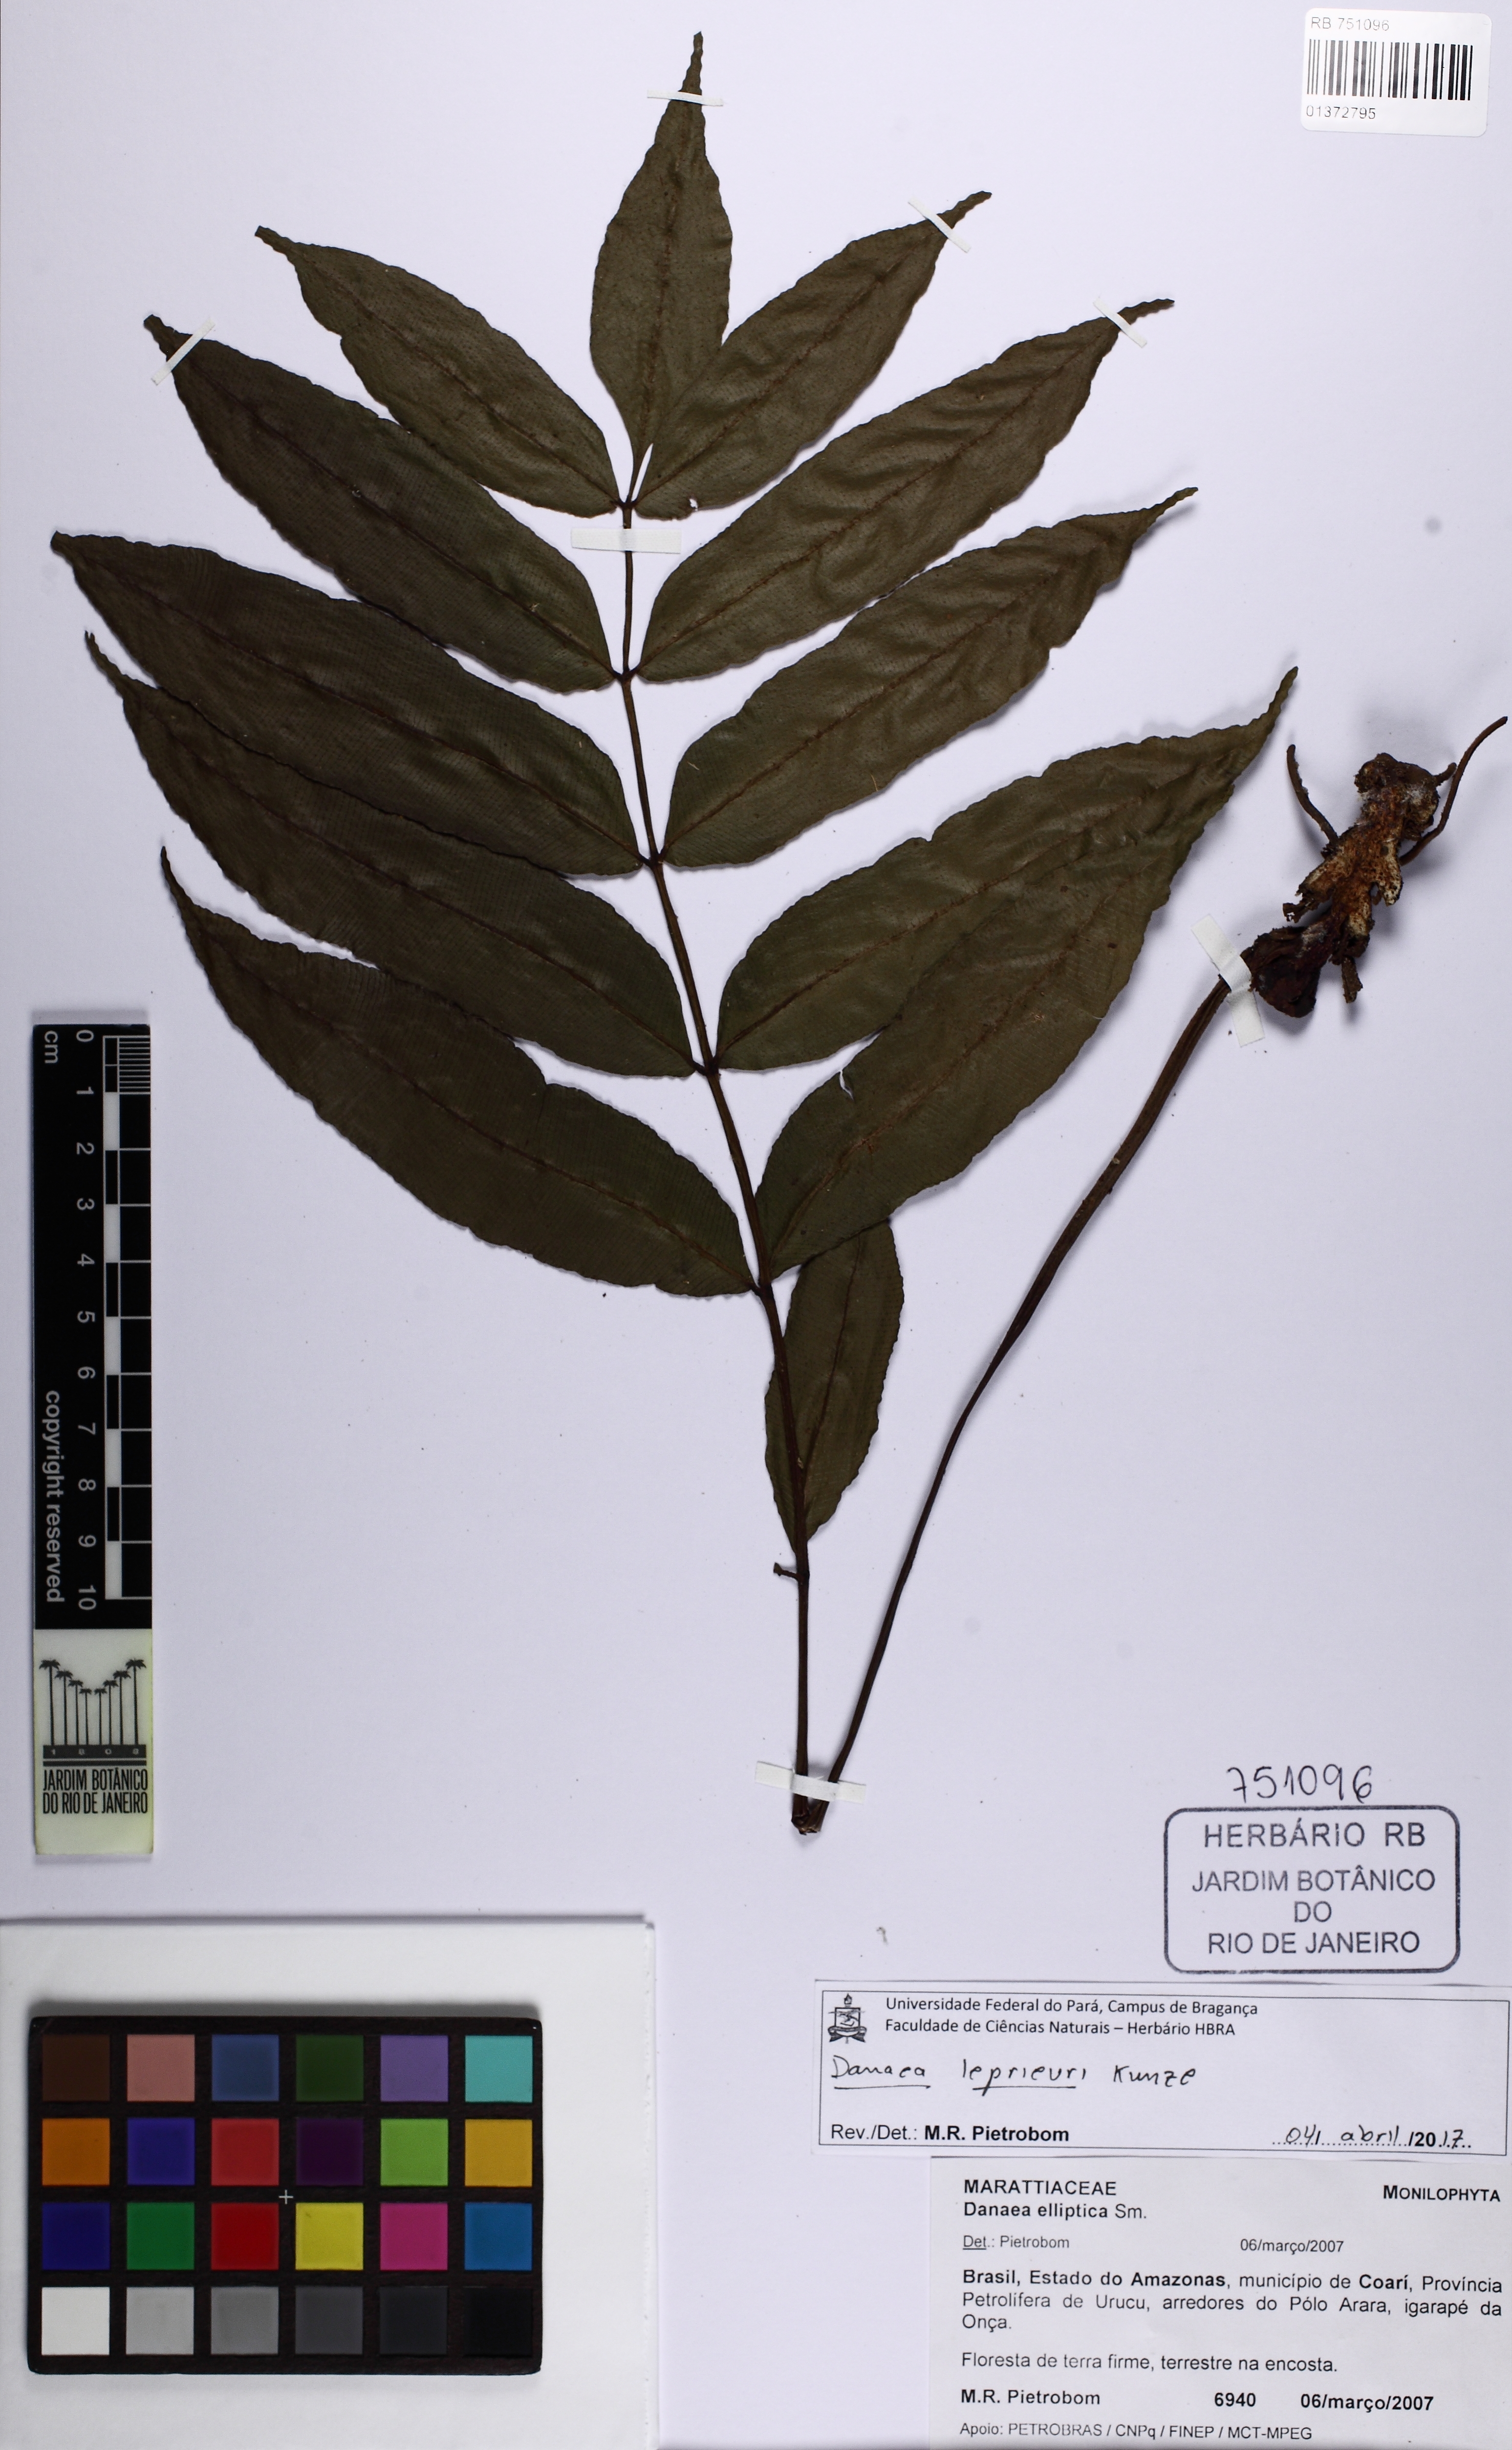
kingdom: Plantae
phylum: Tracheophyta
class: Polypodiopsida
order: Marattiales
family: Marattiaceae
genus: Danaea
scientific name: Danaea leprieurii
